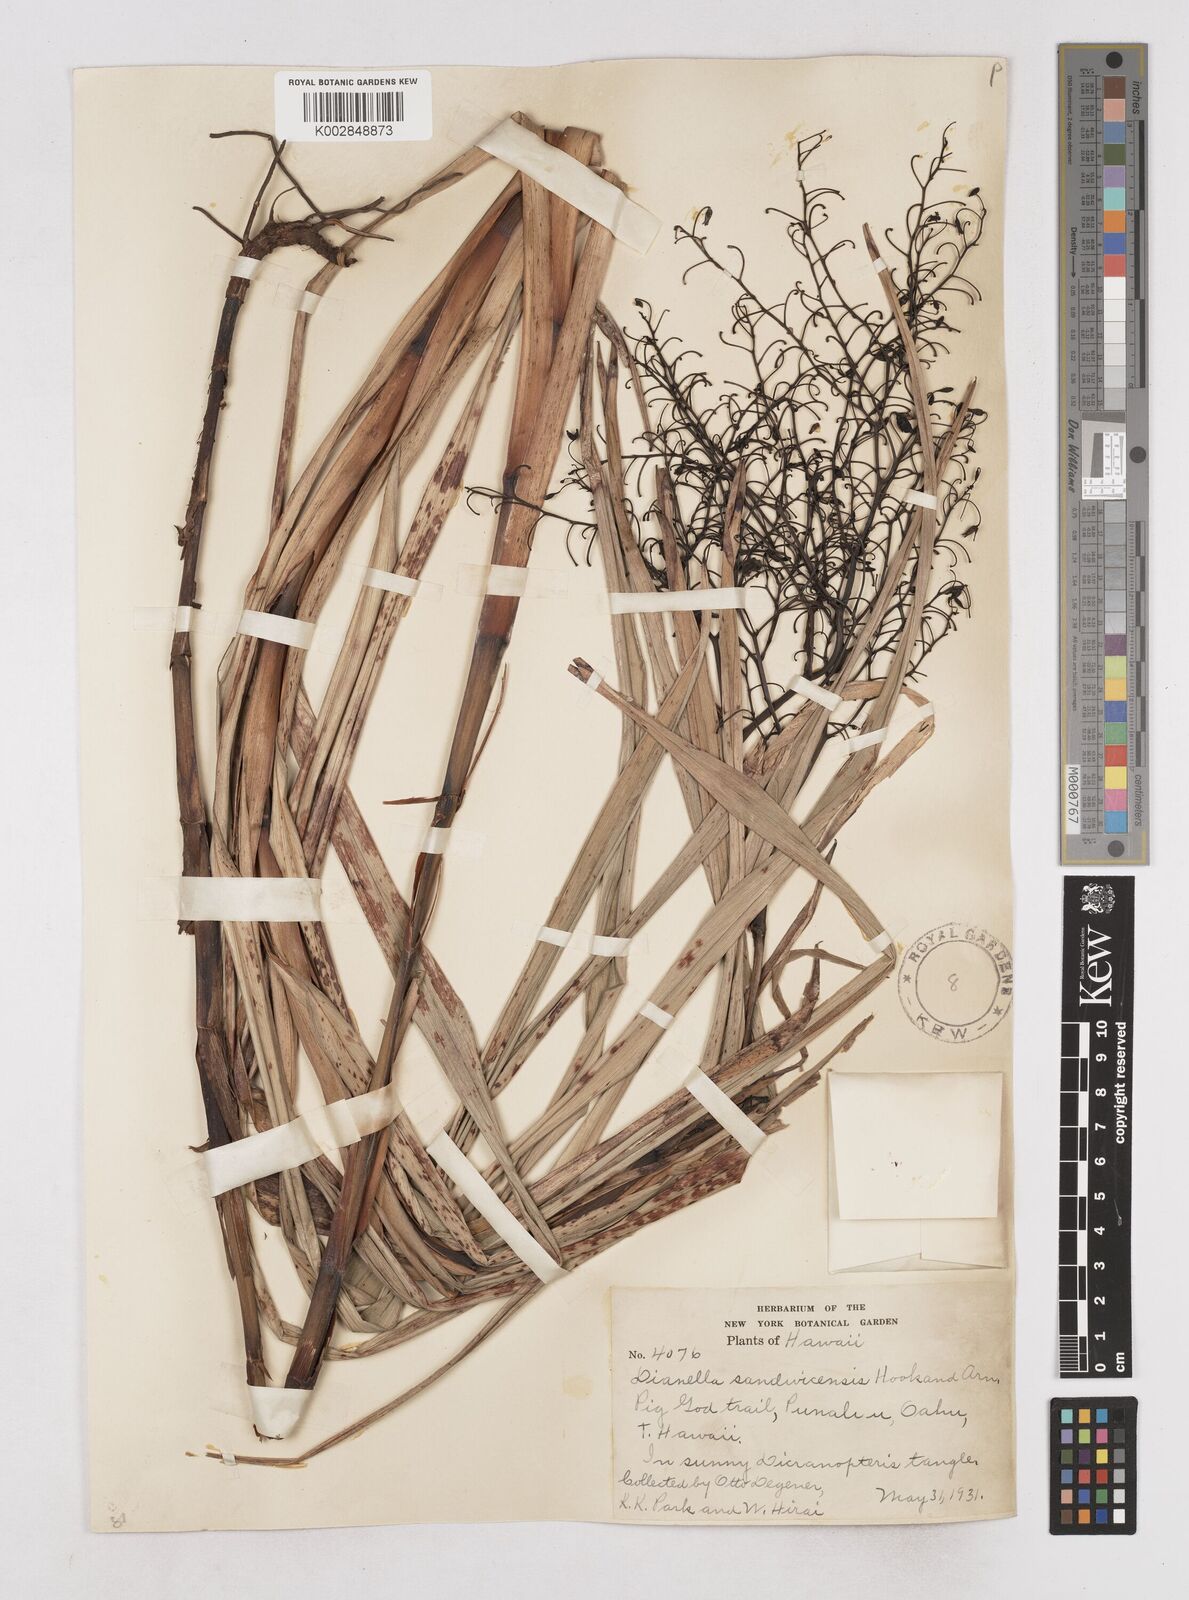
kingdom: Plantae
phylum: Tracheophyta
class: Liliopsida
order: Asparagales
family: Asphodelaceae
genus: Dianella
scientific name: Dianella sandwicensis
